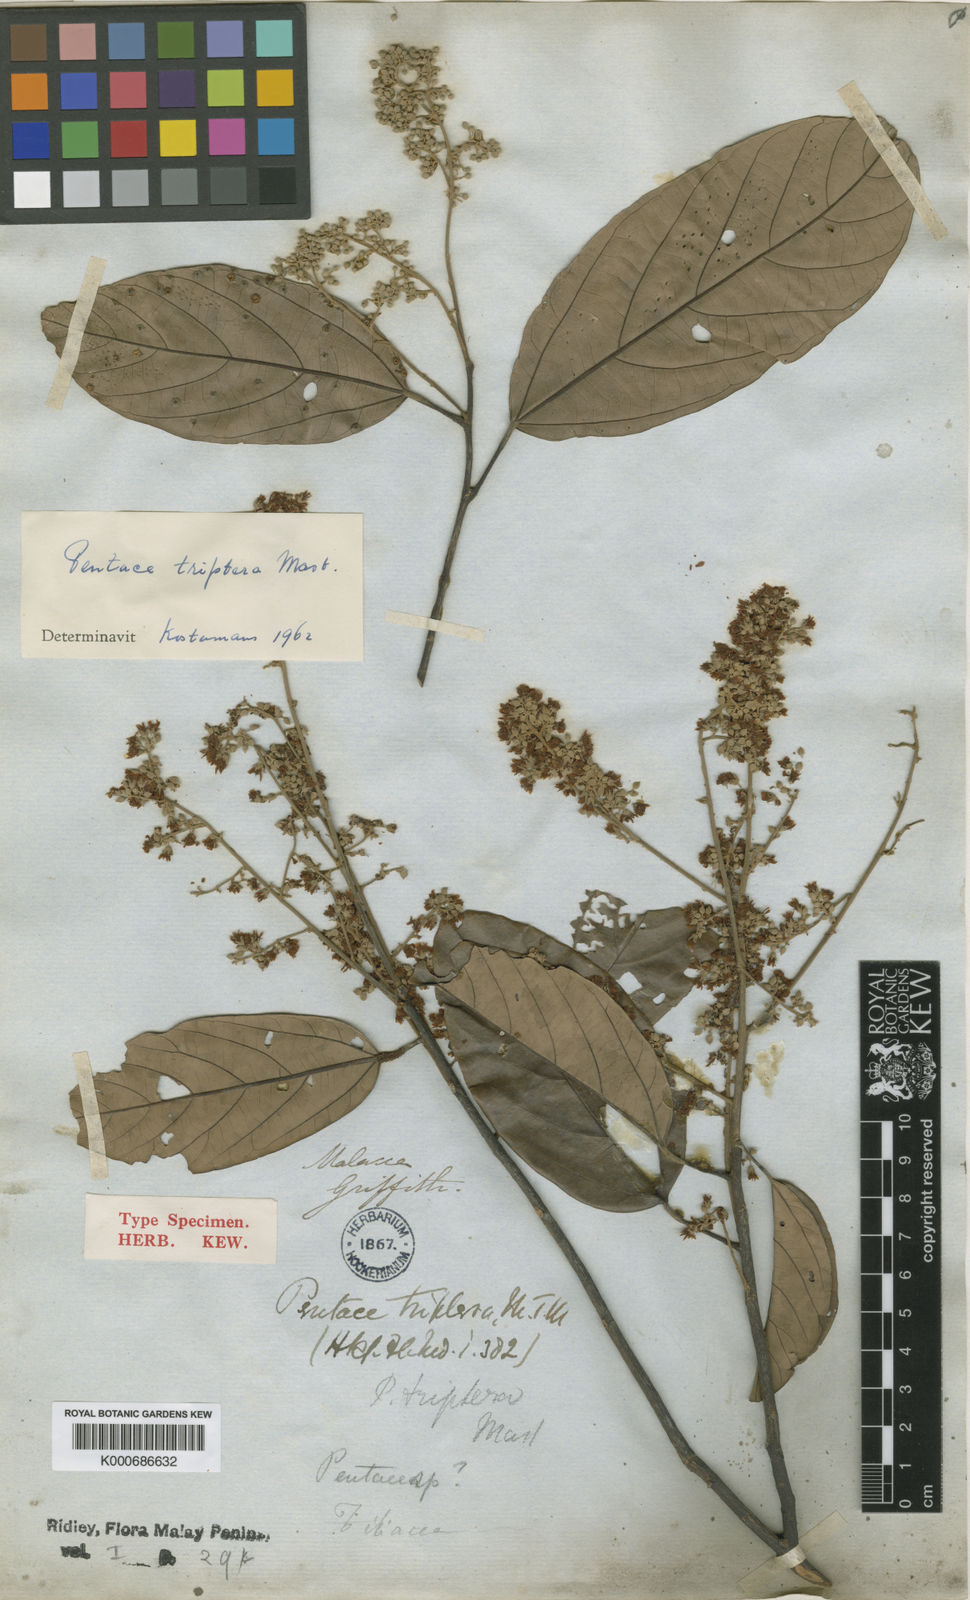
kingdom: Plantae
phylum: Tracheophyta
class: Magnoliopsida
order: Malvales
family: Malvaceae
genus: Pentace
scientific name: Pentace triptera
